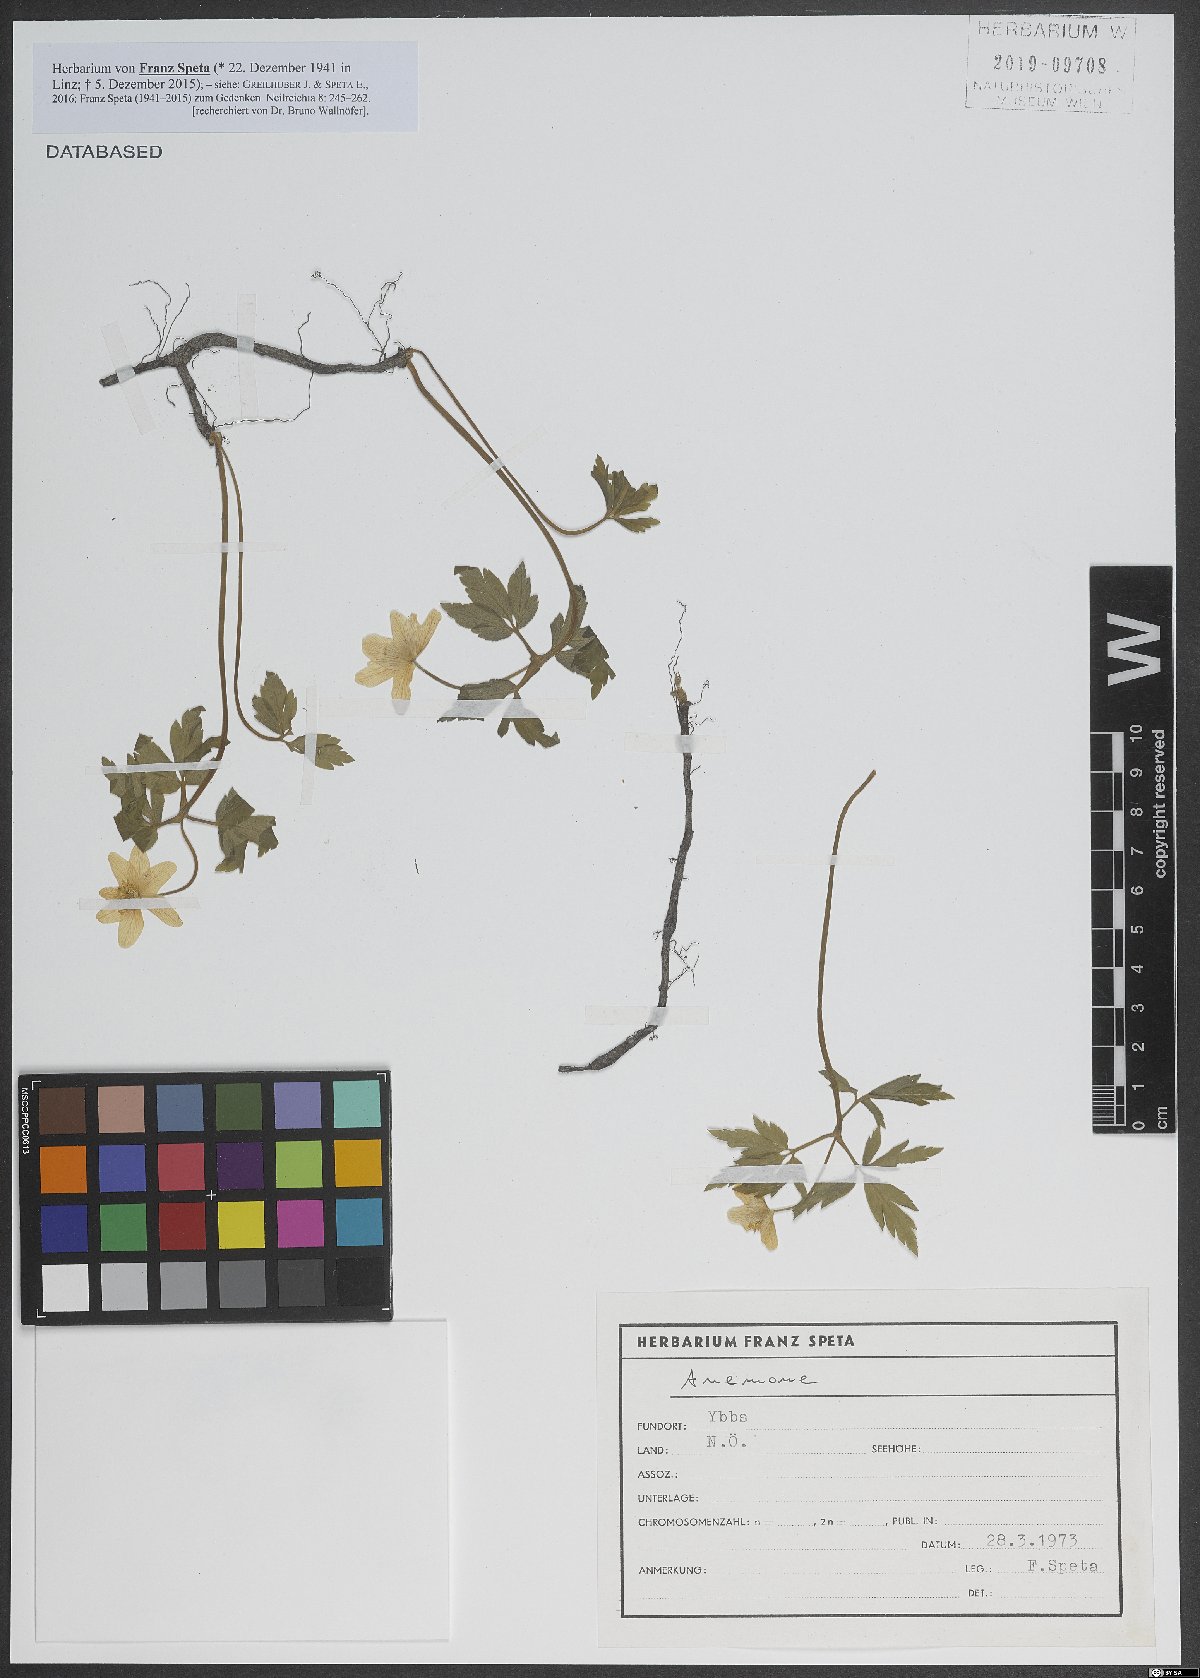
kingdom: Plantae
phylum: Tracheophyta
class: Magnoliopsida
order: Ranunculales
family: Ranunculaceae
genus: Anemone
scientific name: Anemone
